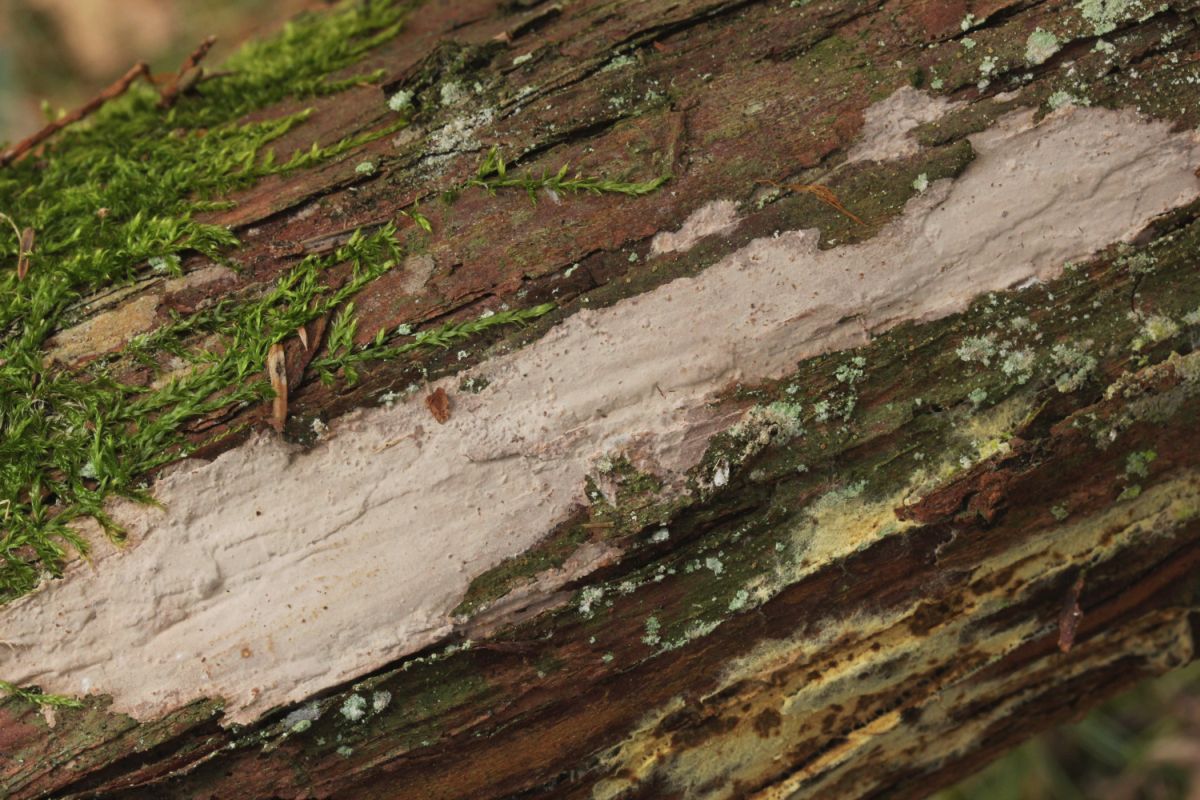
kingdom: Fungi
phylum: Basidiomycota
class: Agaricomycetes
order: Russulales
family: Echinodontiaceae
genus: Amylostereum
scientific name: Amylostereum laevigatum
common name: ene-lædersvamp
